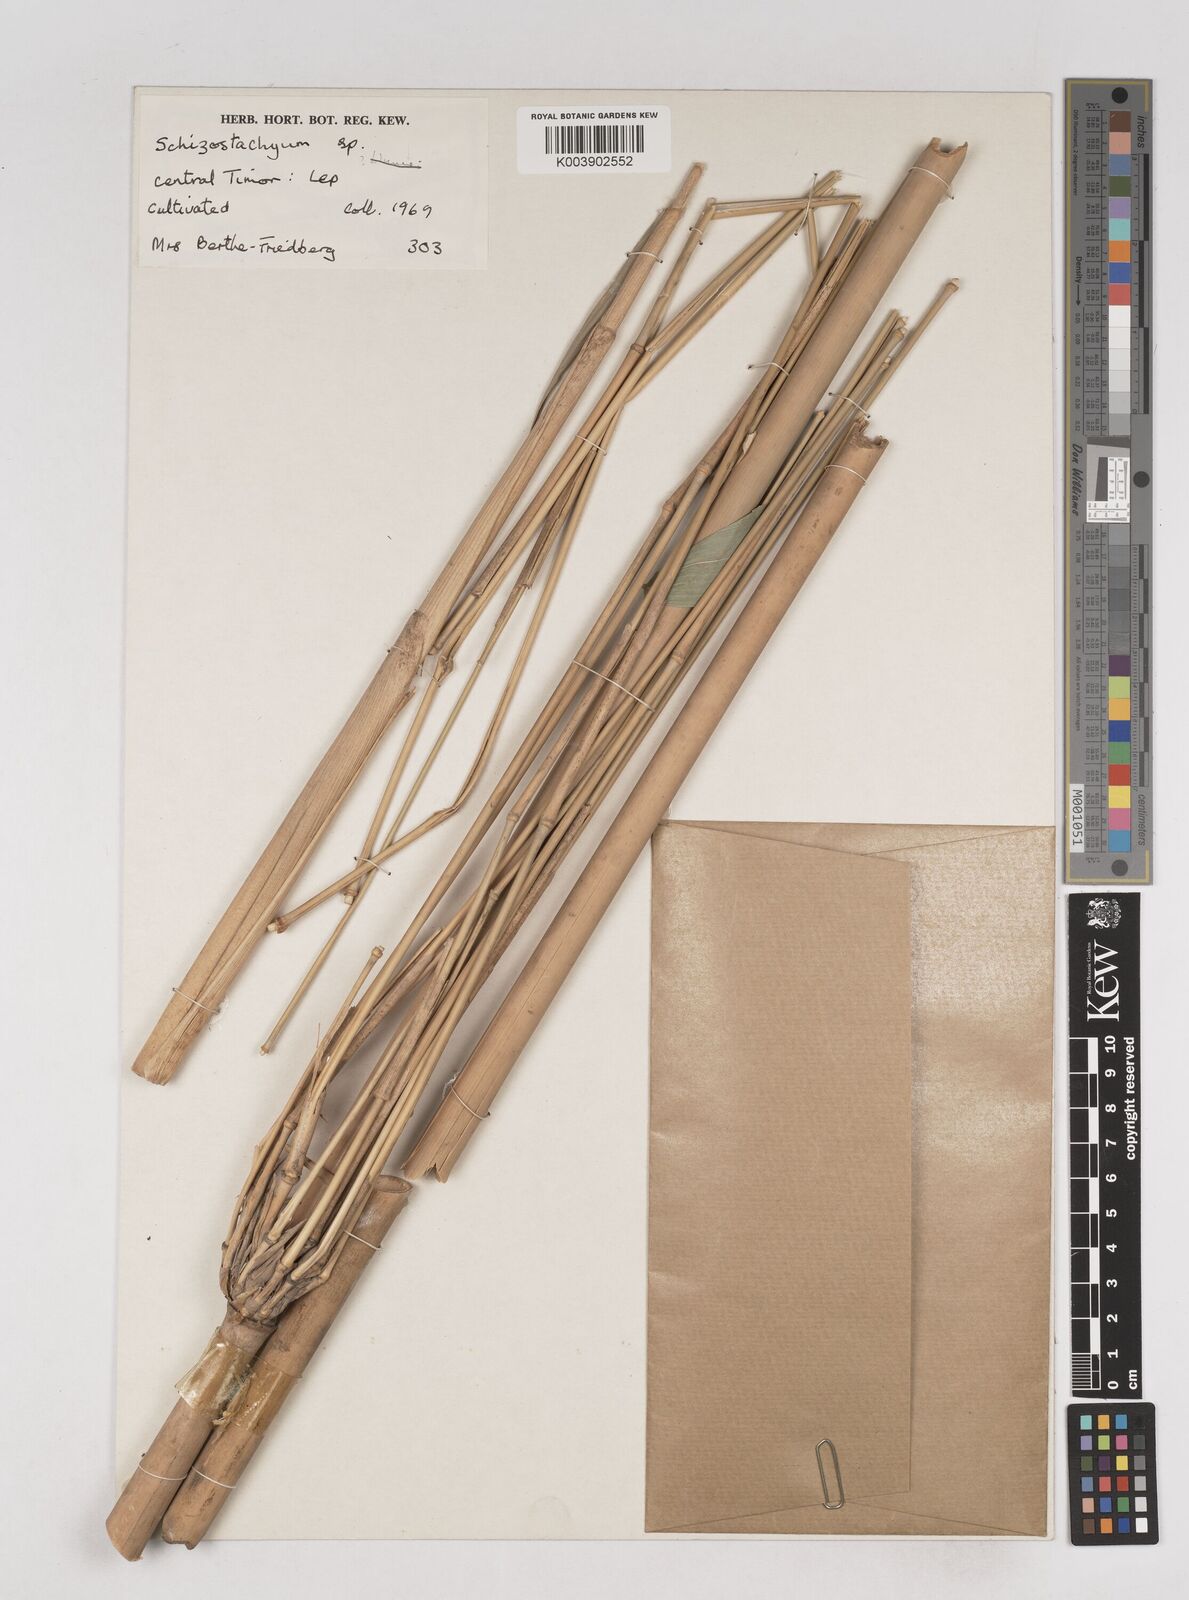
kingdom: Plantae
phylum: Tracheophyta
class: Liliopsida
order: Poales
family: Poaceae
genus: Schizostachyum
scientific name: Schizostachyum blumei
